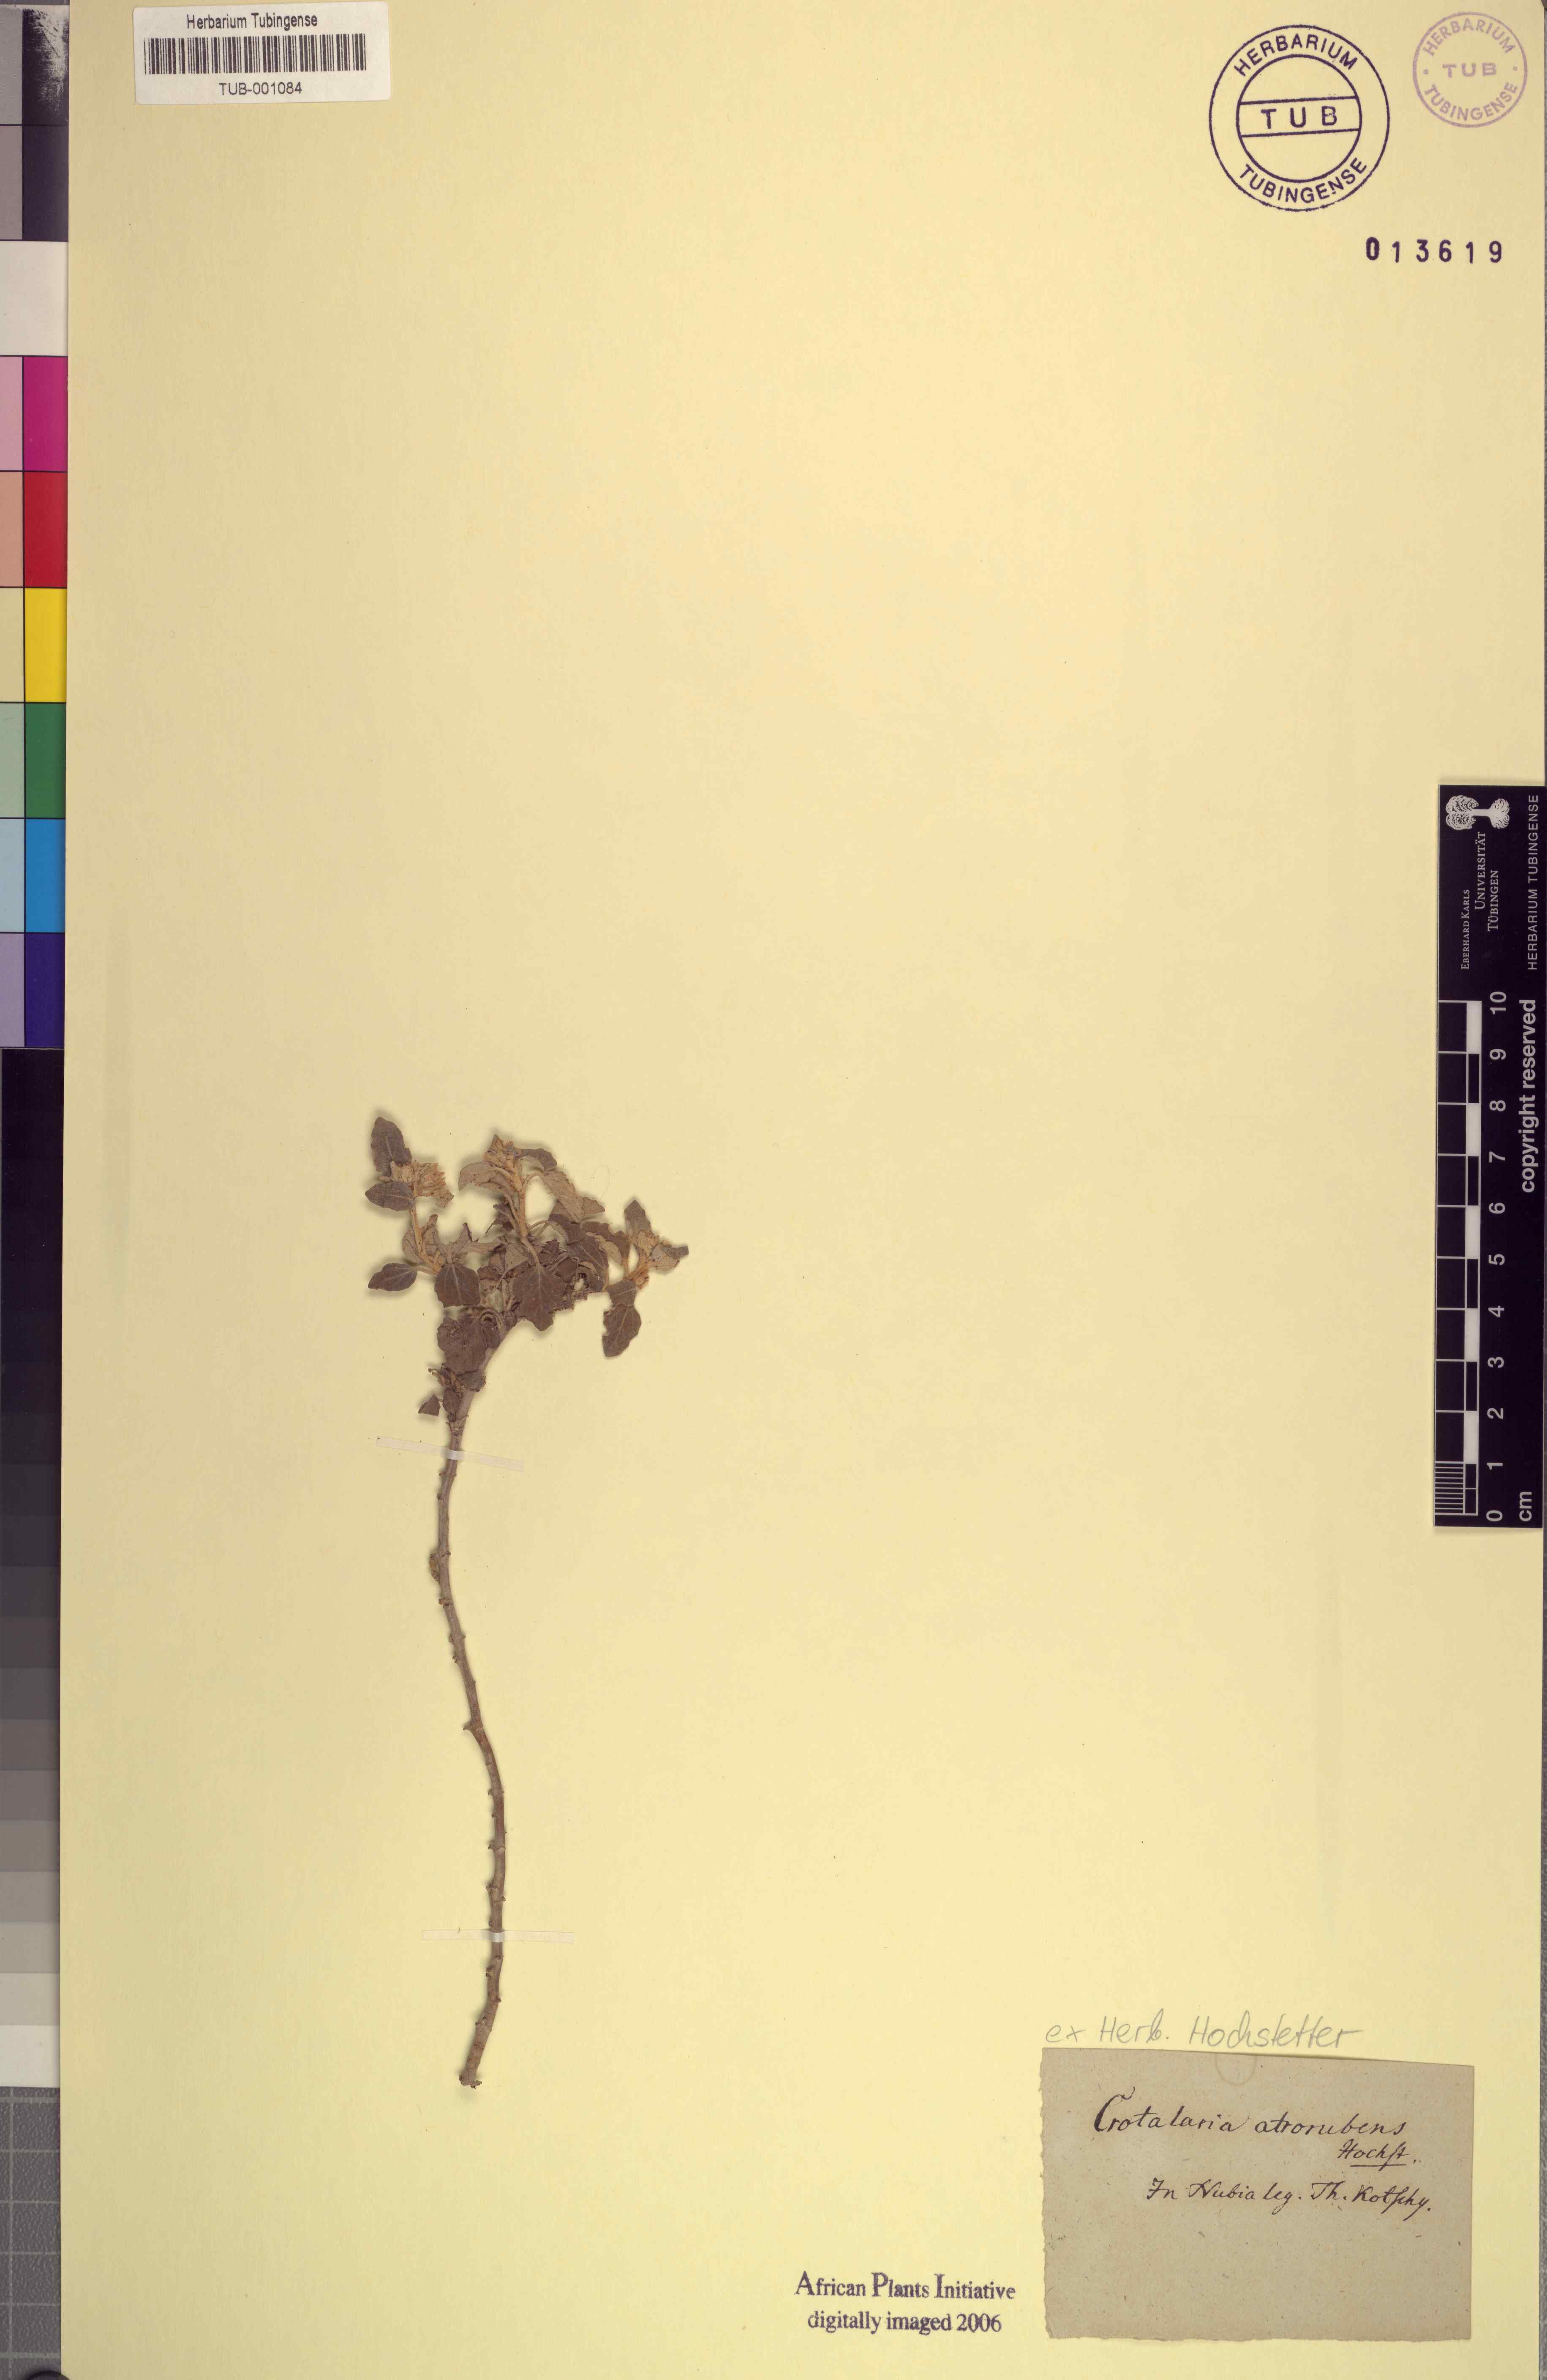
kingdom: Plantae
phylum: Tracheophyta
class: Magnoliopsida
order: Fabales
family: Fabaceae
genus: Crotalaria
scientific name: Crotalaria atrorubens
